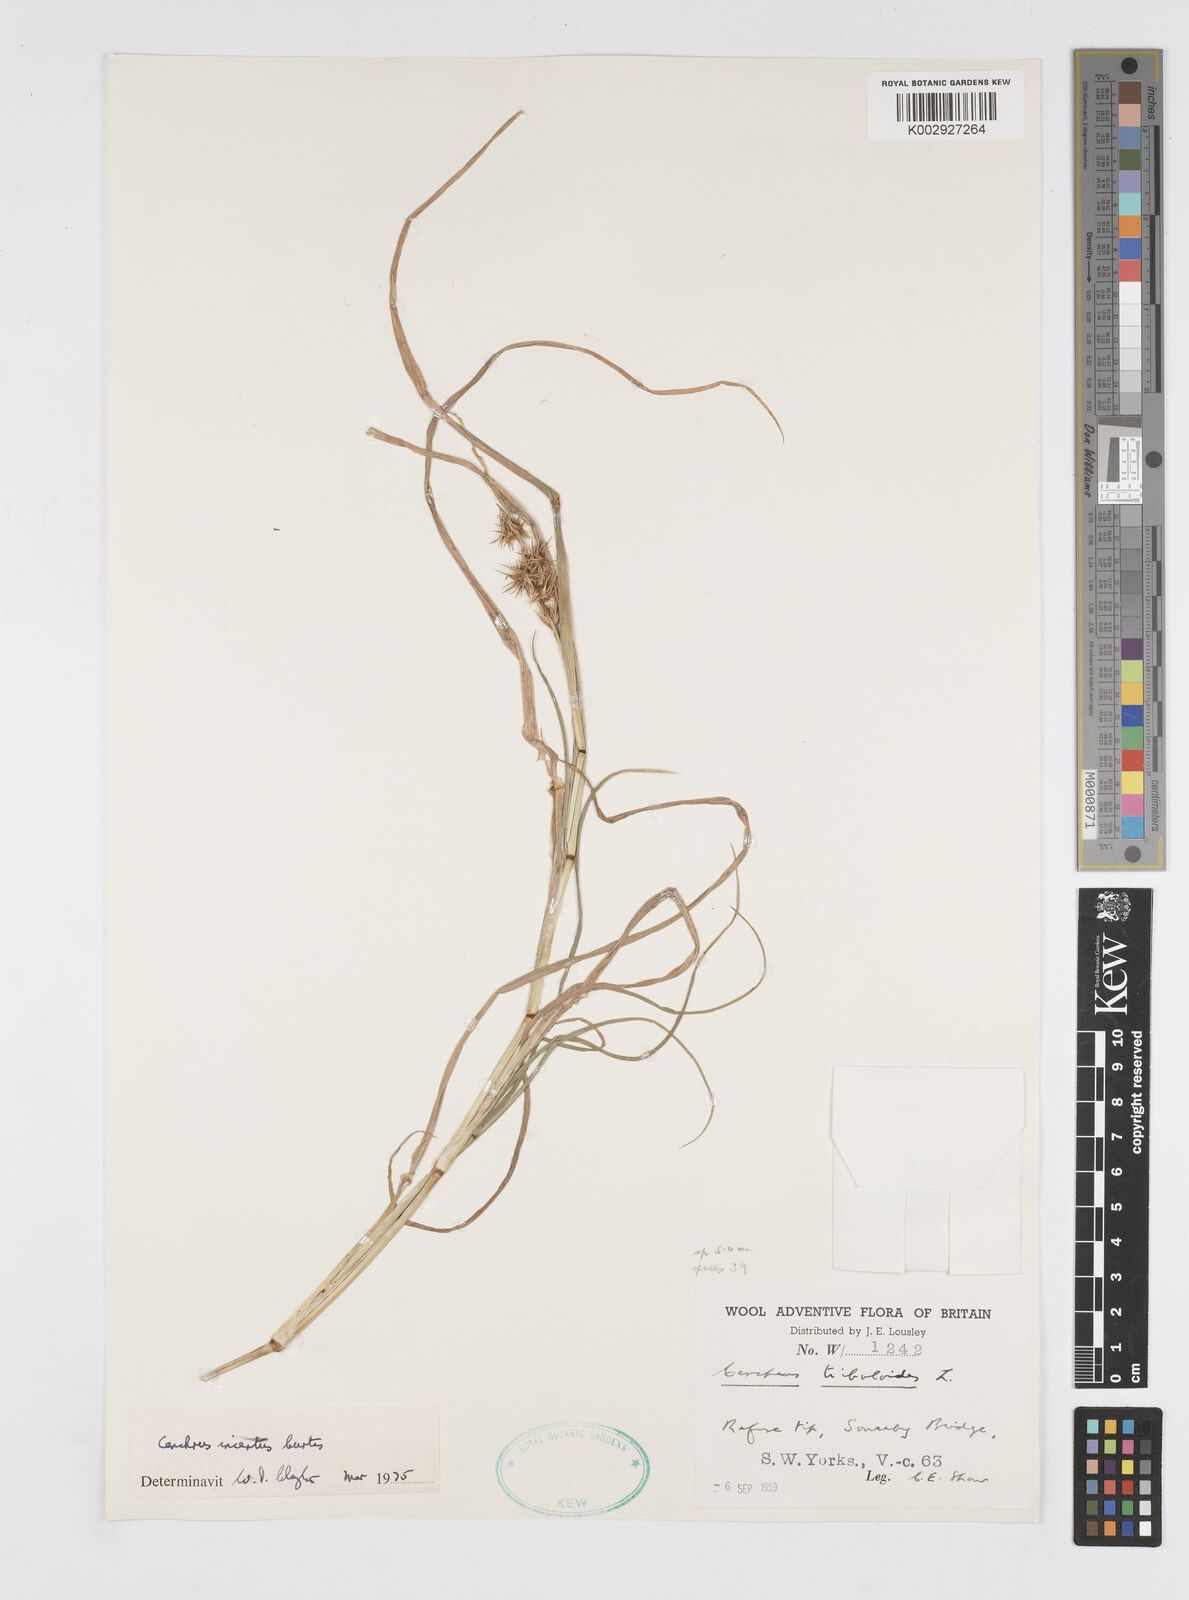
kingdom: Plantae
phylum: Tracheophyta
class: Liliopsida
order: Poales
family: Poaceae
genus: Cenchrus
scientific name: Cenchrus spinifex
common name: Coast sandbur
